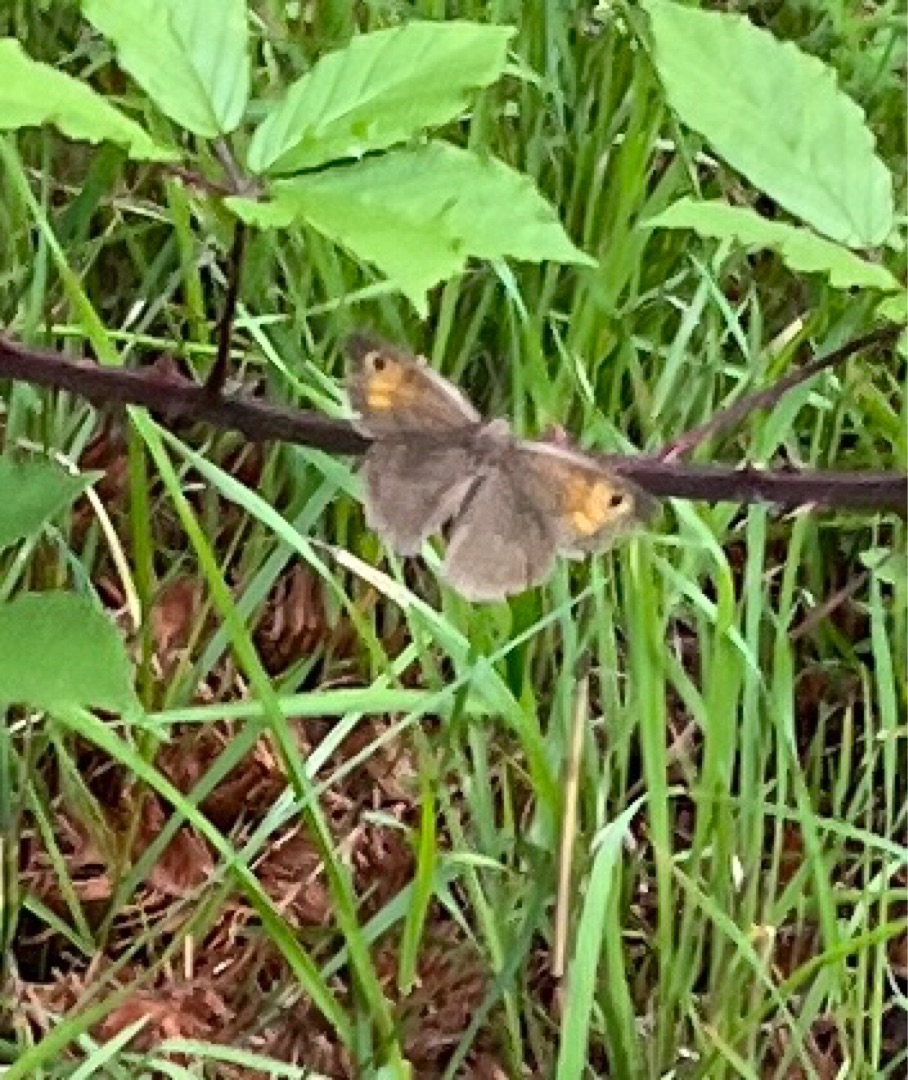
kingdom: Animalia
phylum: Arthropoda
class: Insecta
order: Lepidoptera
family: Nymphalidae
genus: Maniola
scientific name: Maniola jurtina
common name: Græsrandøje
